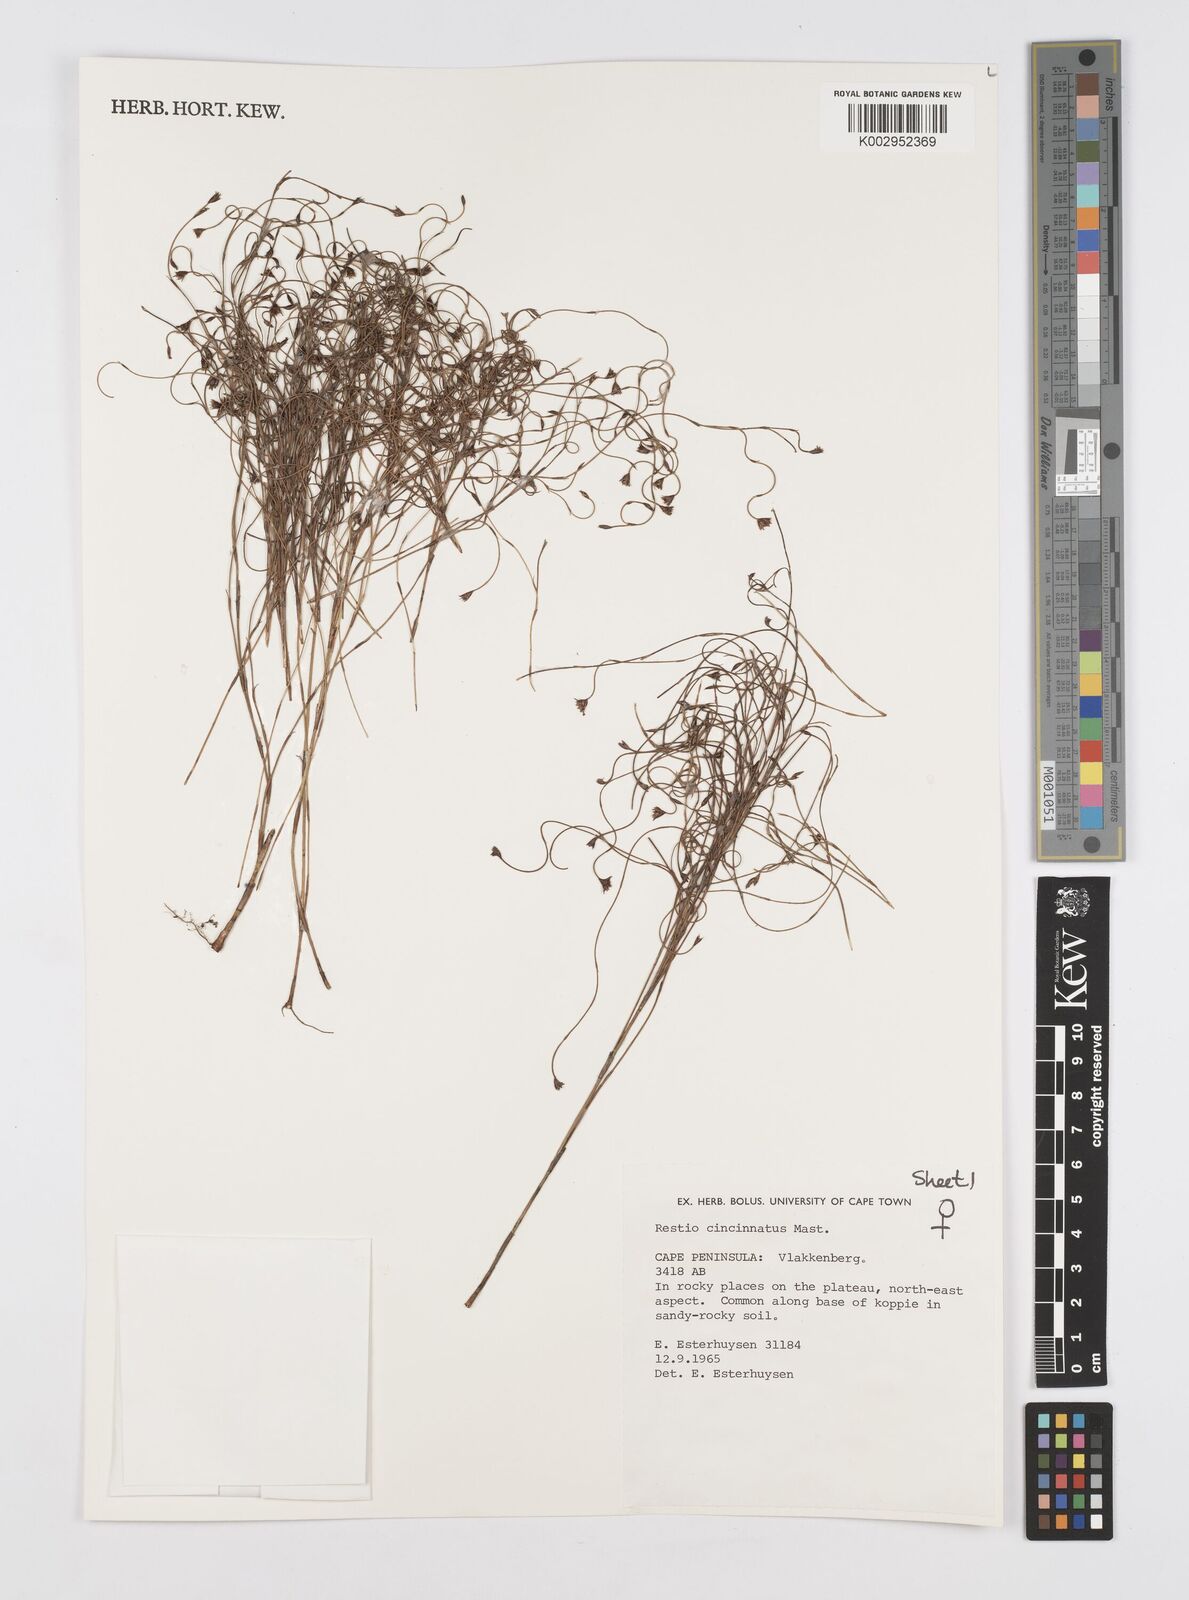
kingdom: Plantae
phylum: Tracheophyta
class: Liliopsida
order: Poales
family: Restionaceae
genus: Restio
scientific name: Restio cincinnatus
